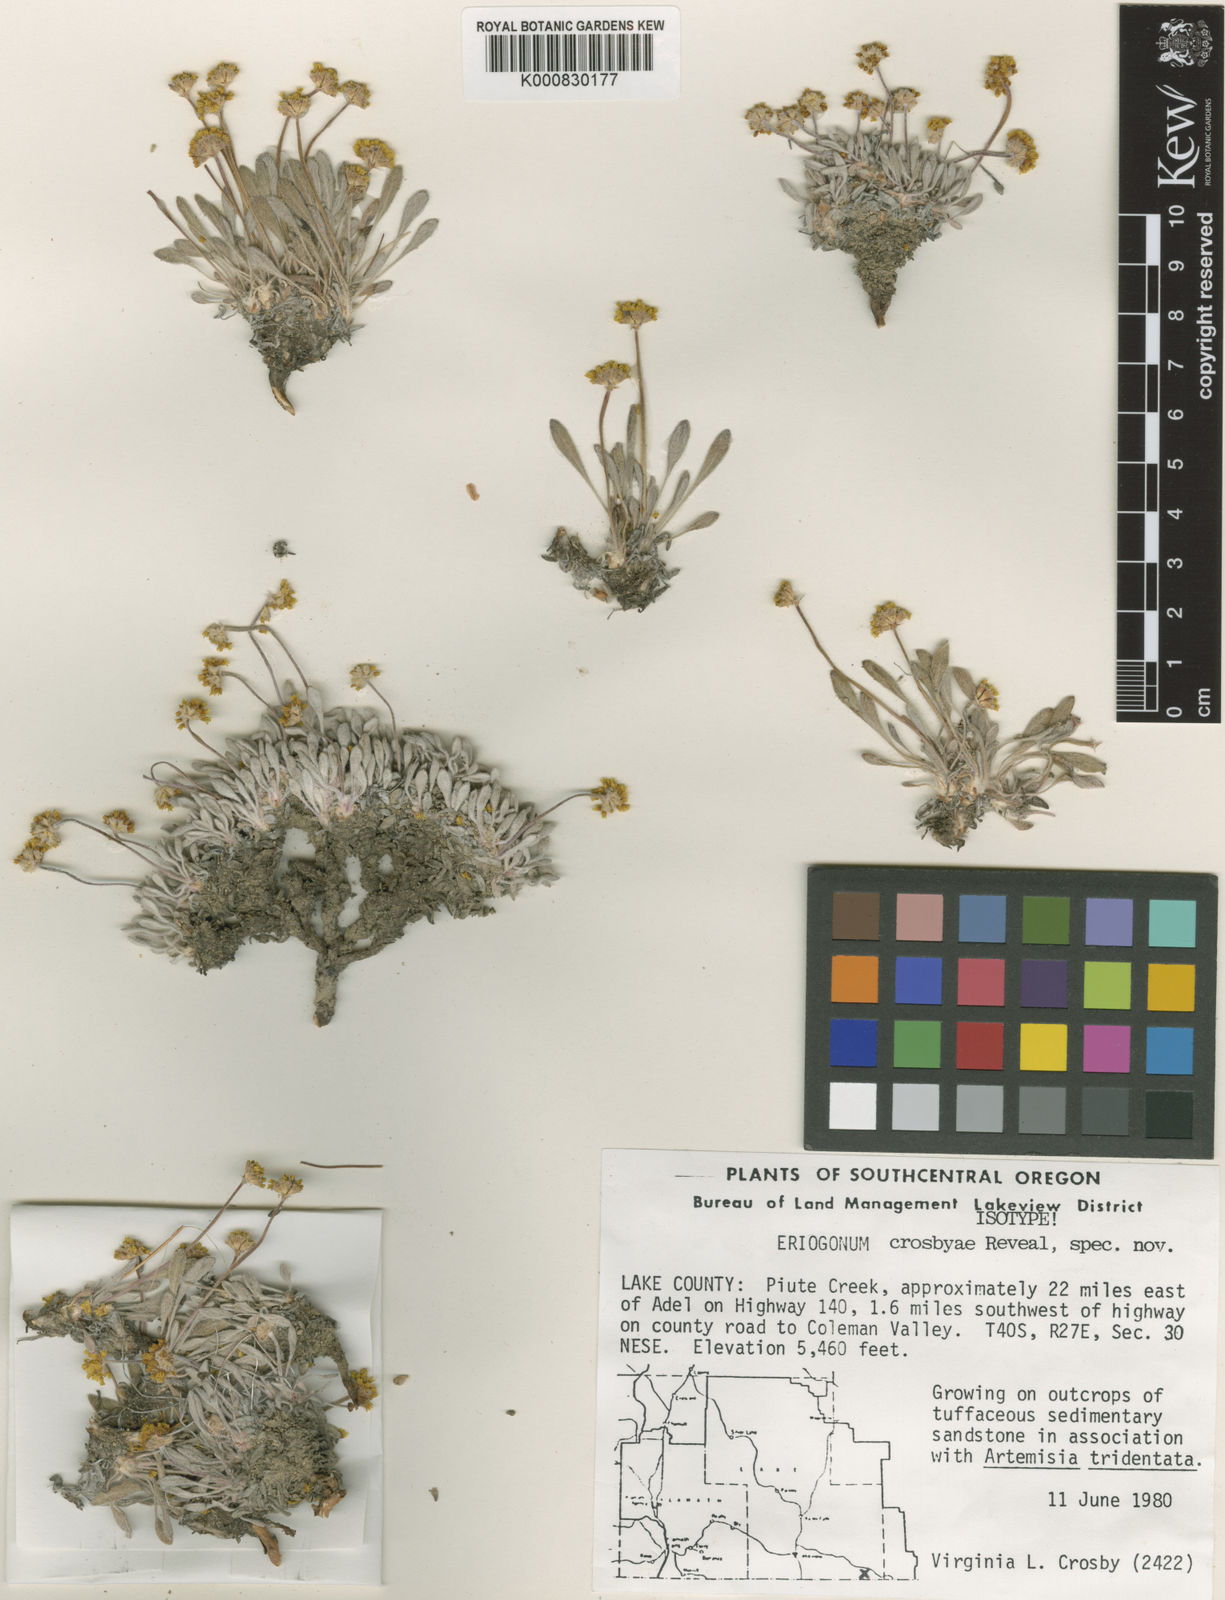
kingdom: Plantae
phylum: Tracheophyta
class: Magnoliopsida
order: Caryophyllales
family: Polygonaceae
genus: Eriogonum
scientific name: Eriogonum crosbyae
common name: Crosby's wild buckwheat
